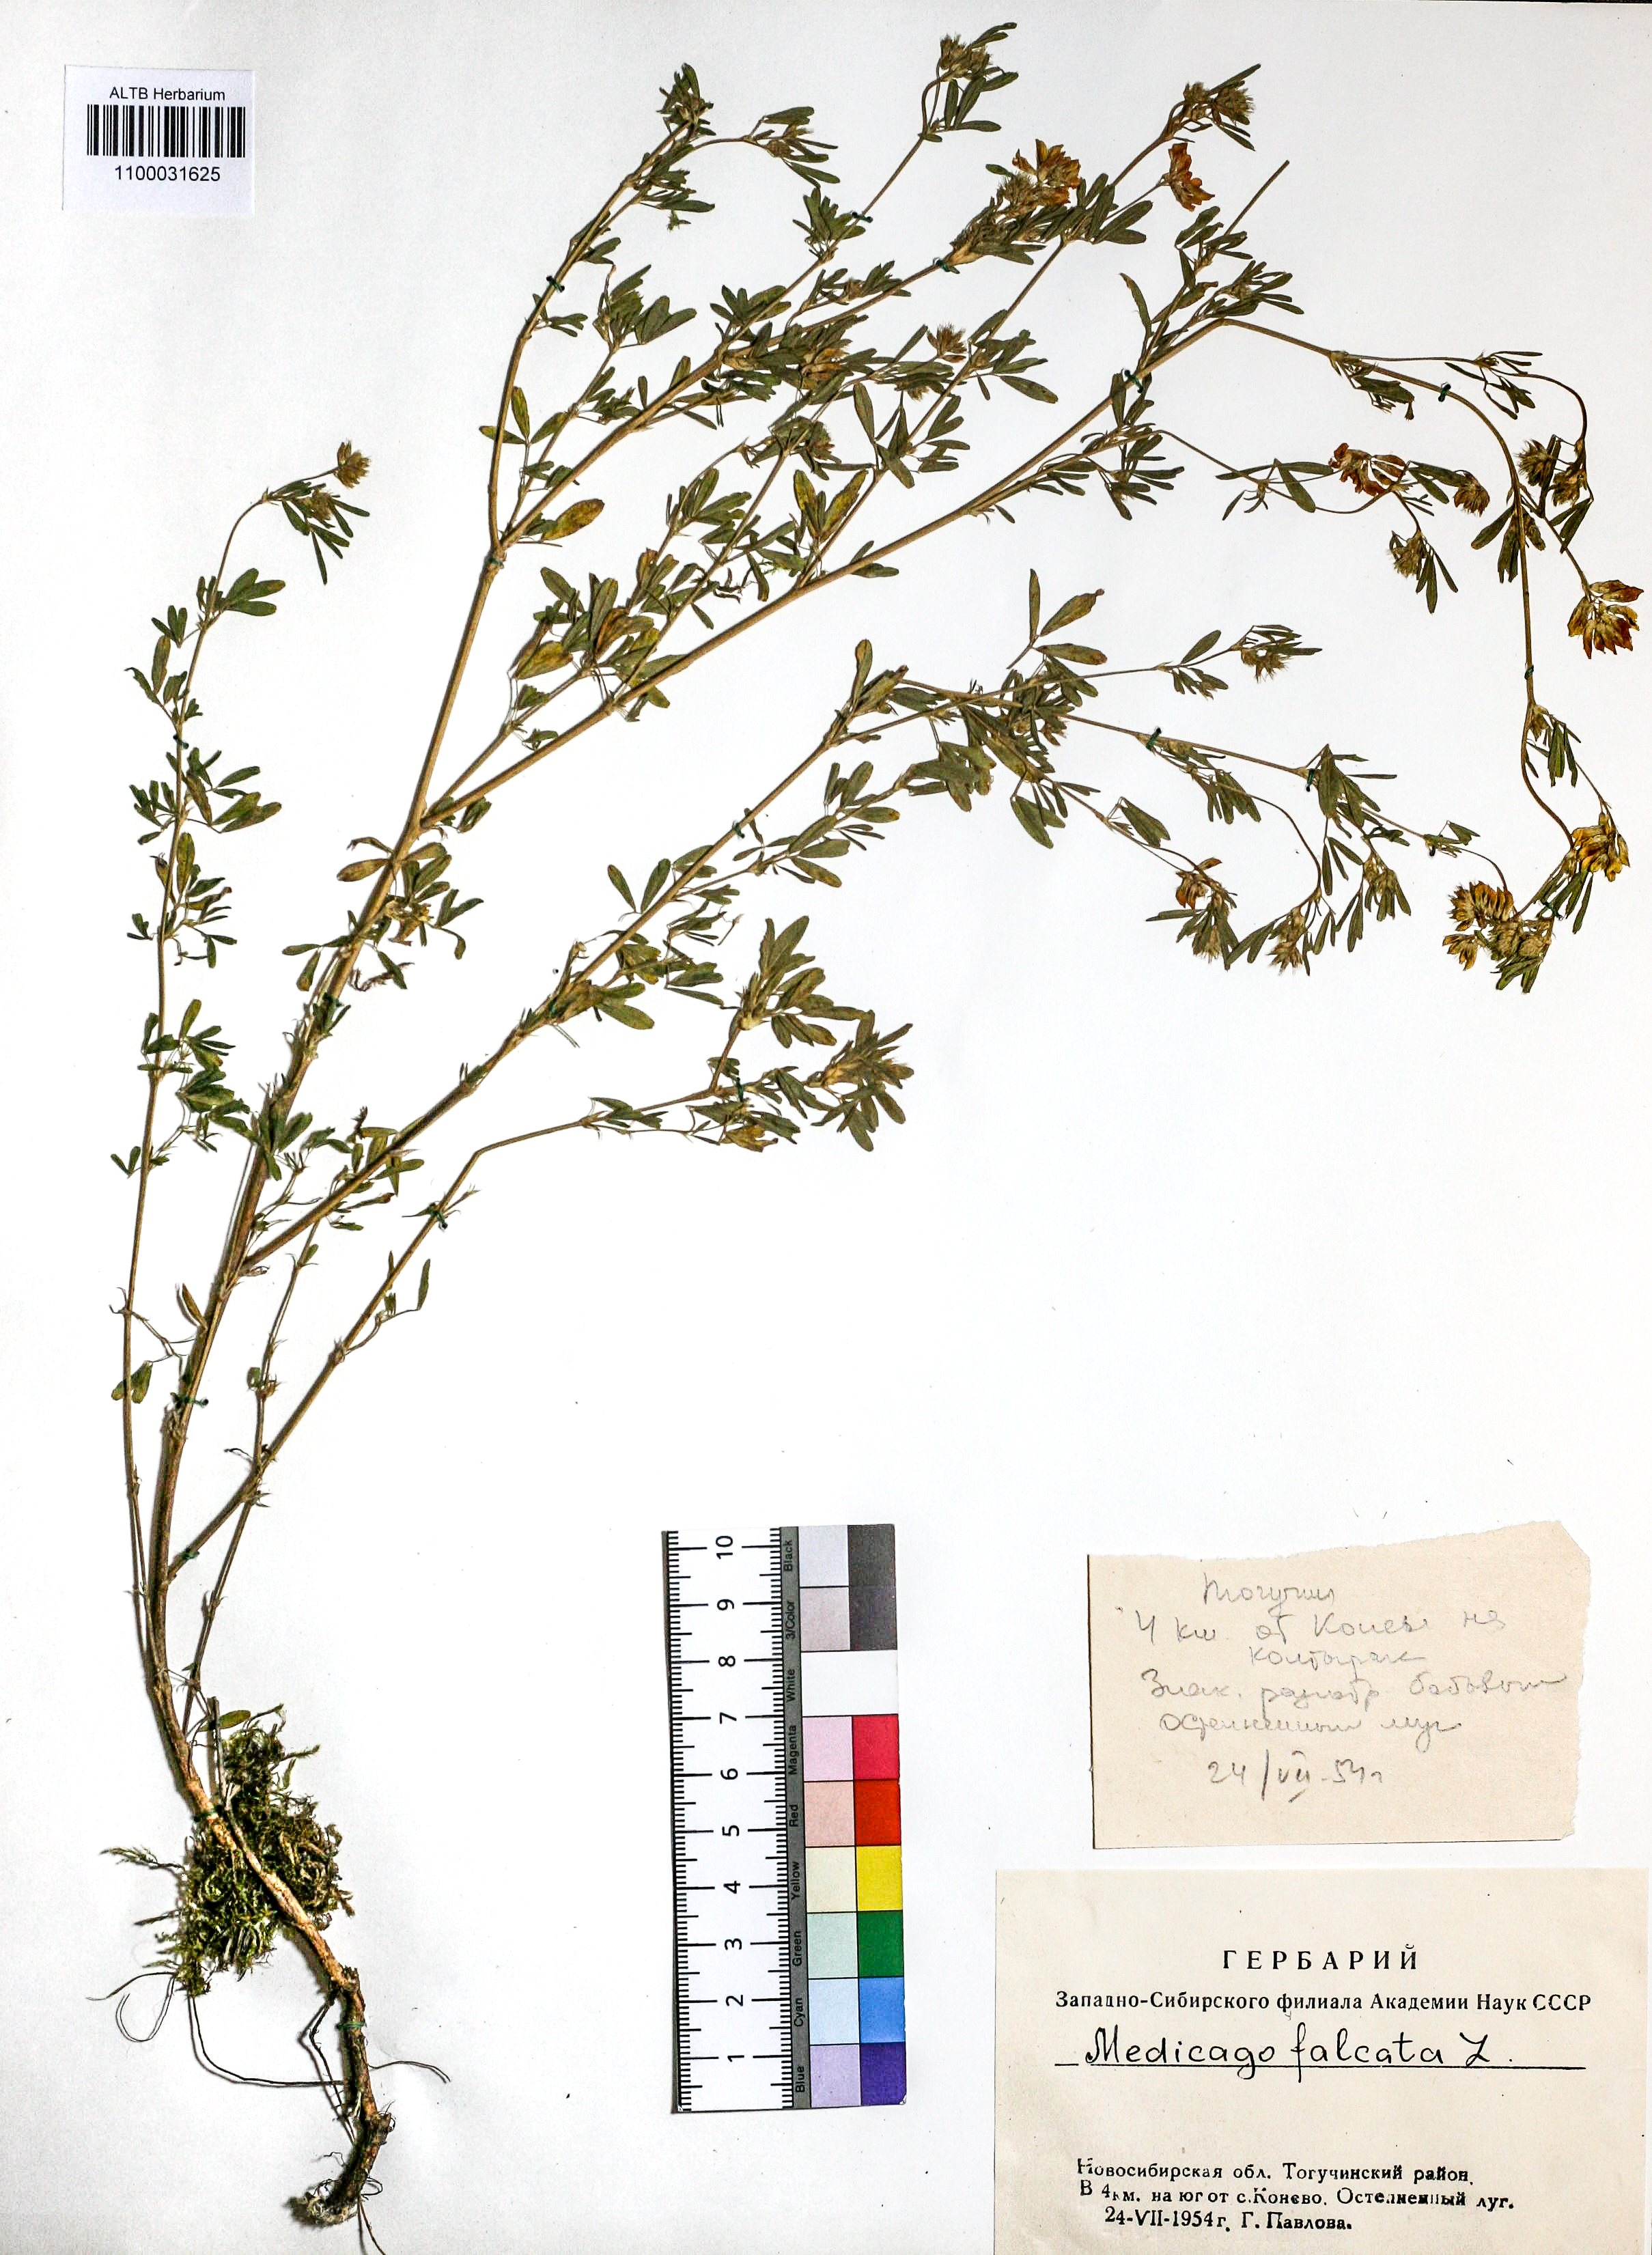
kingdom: Plantae
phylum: Tracheophyta
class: Magnoliopsida
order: Fabales
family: Fabaceae
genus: Medicago
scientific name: Medicago falcata
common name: Sickle medick
